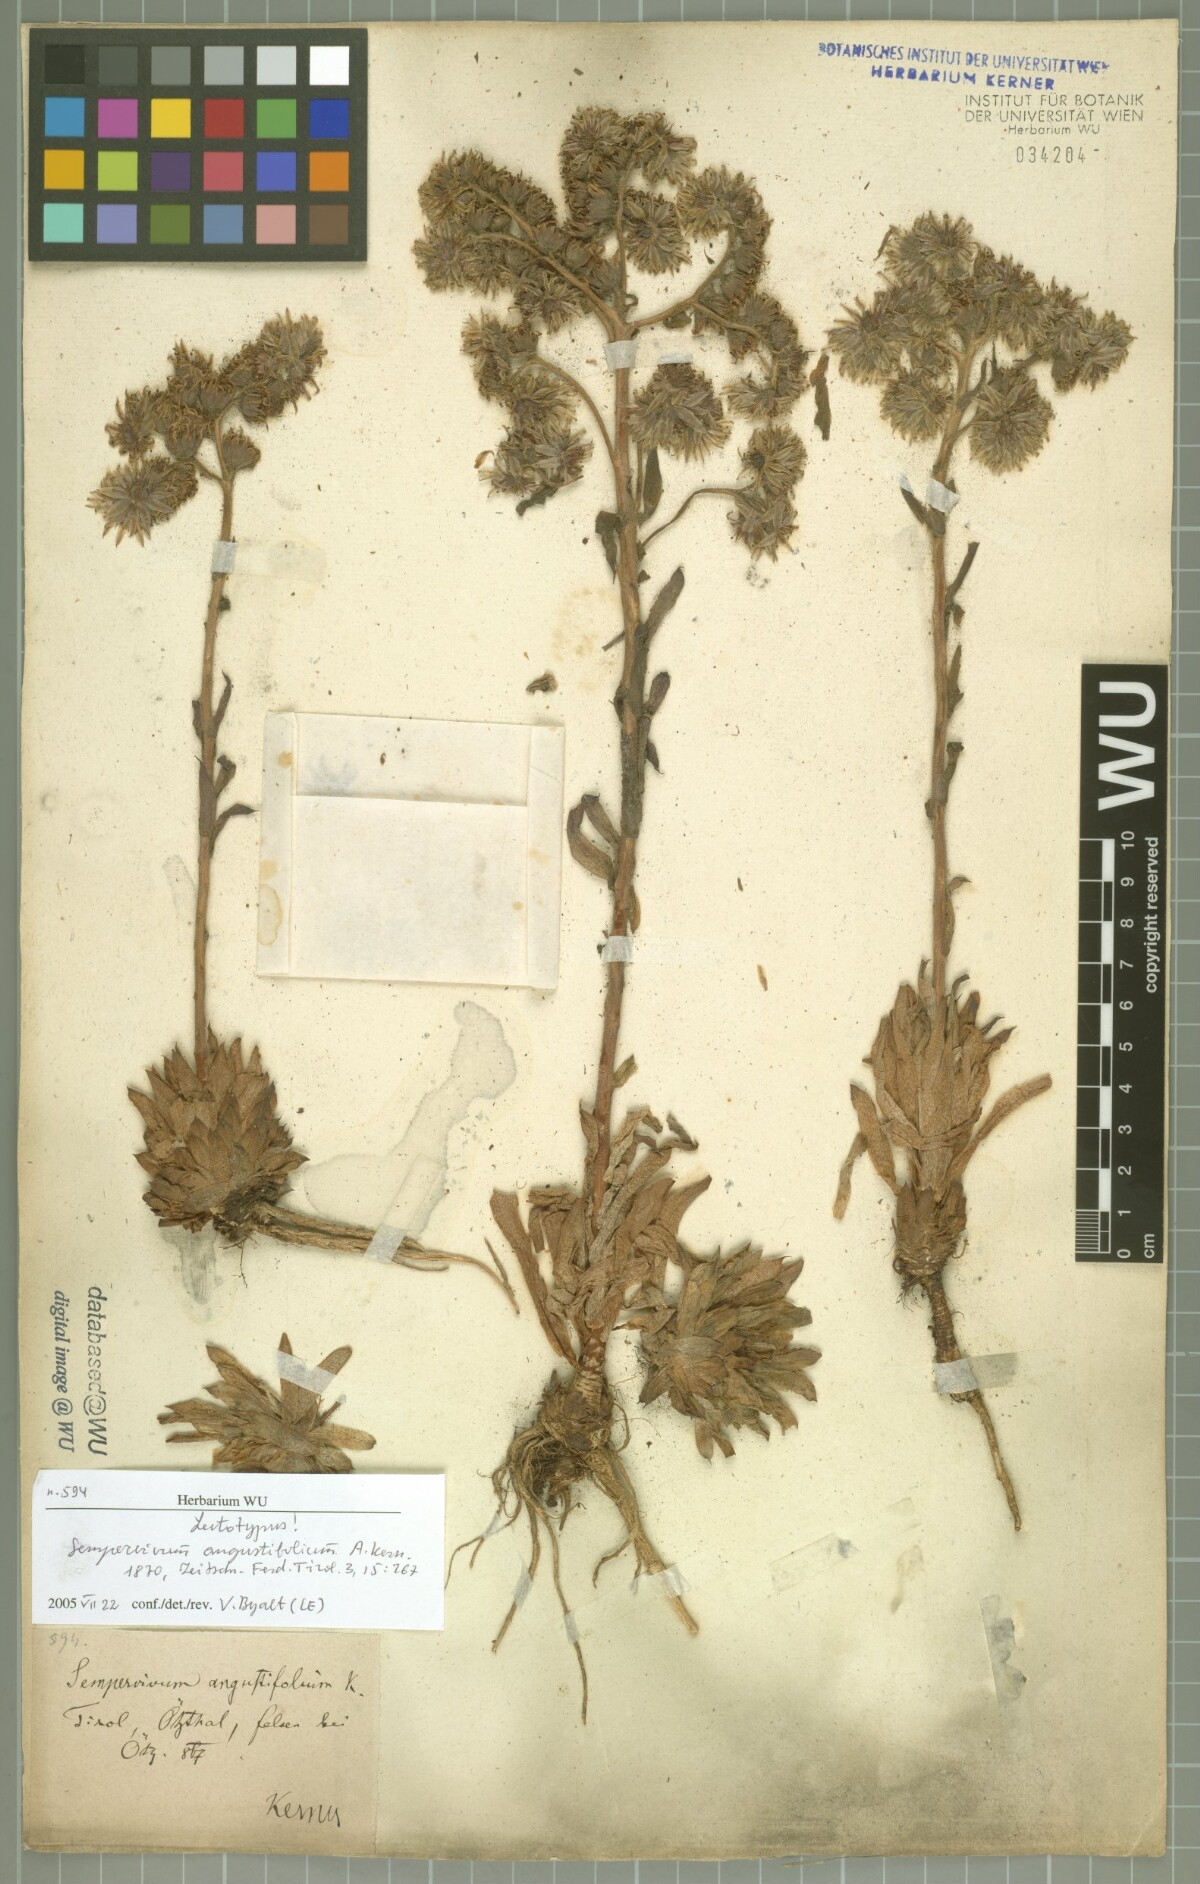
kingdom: Plantae
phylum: Tracheophyta
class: Magnoliopsida
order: Saxifragales
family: Crassulaceae
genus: Sempervivum
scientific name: Sempervivum alatum
